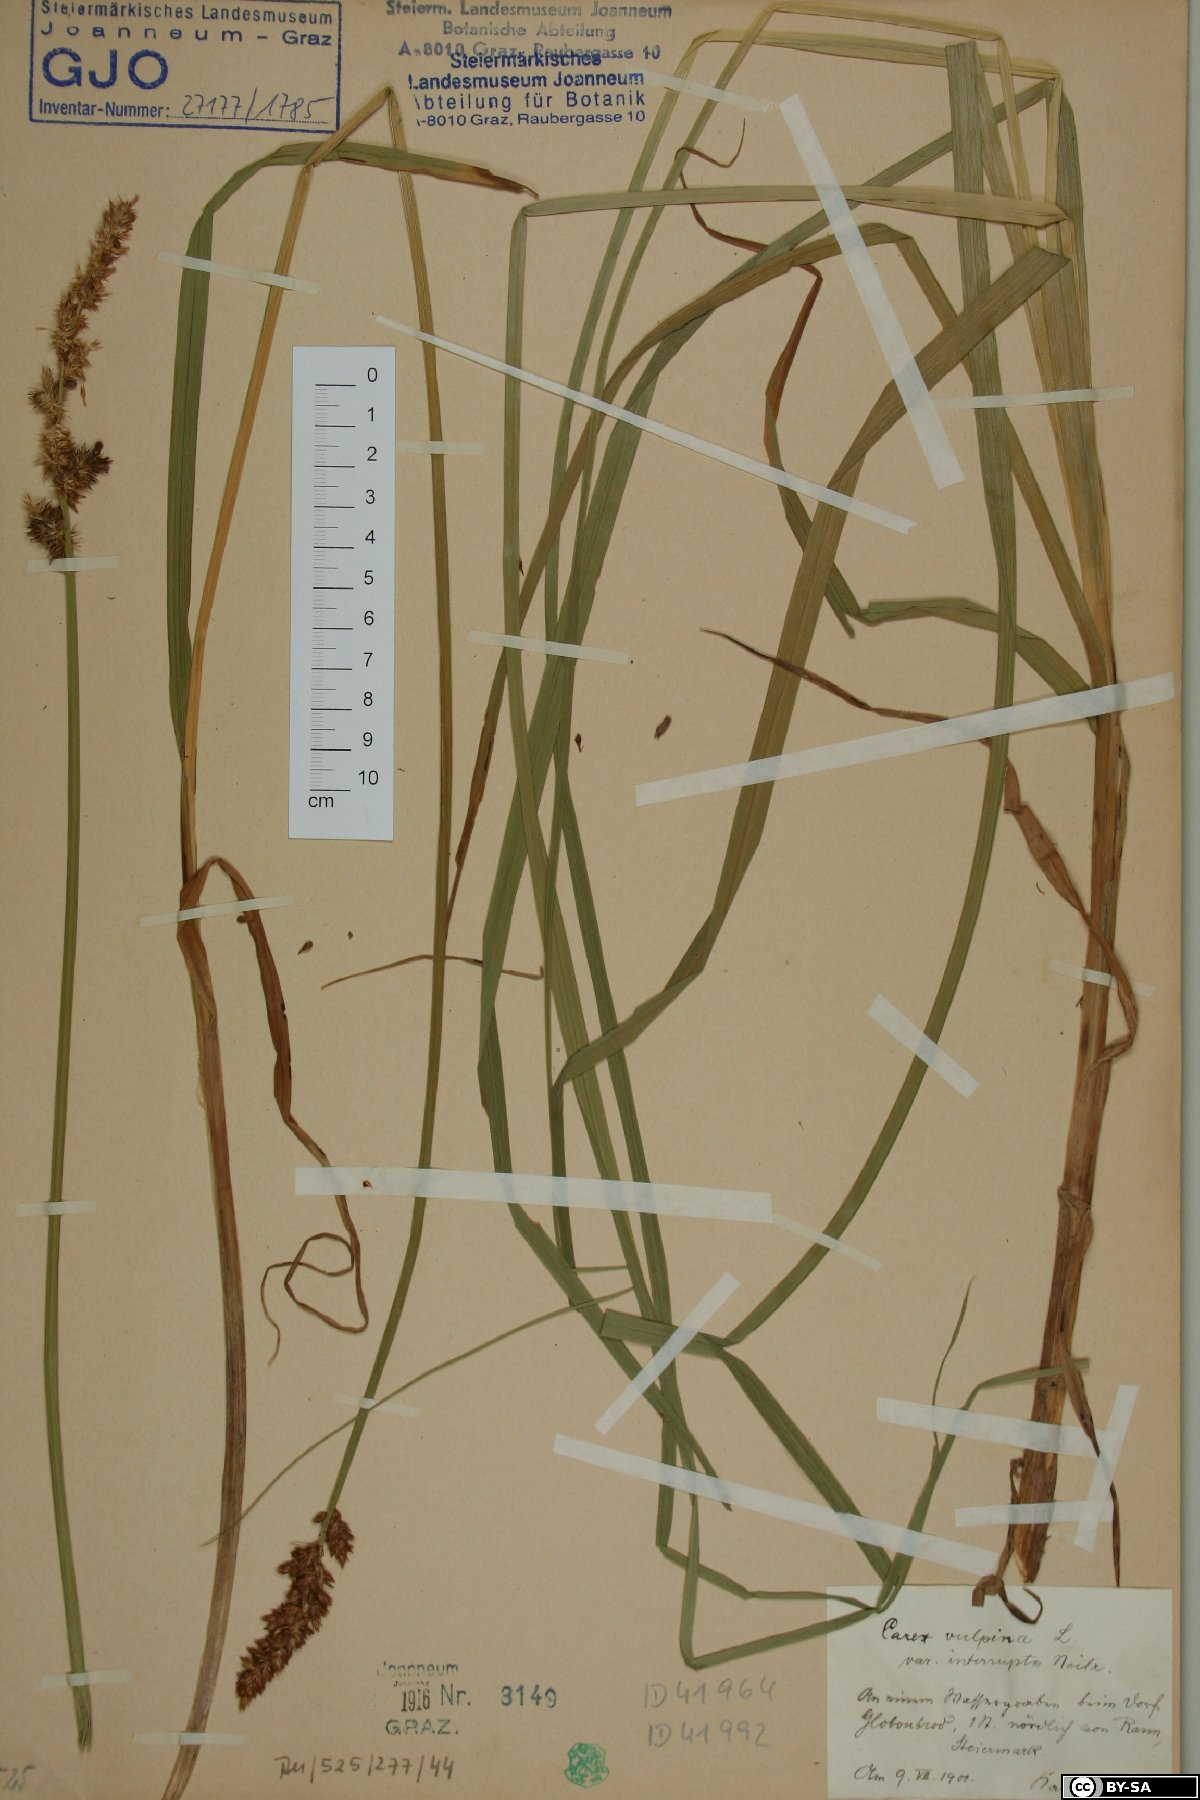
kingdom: Plantae
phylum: Tracheophyta
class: Liliopsida
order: Poales
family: Cyperaceae
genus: Carex
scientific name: Carex otrubae
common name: False fox-sedge
